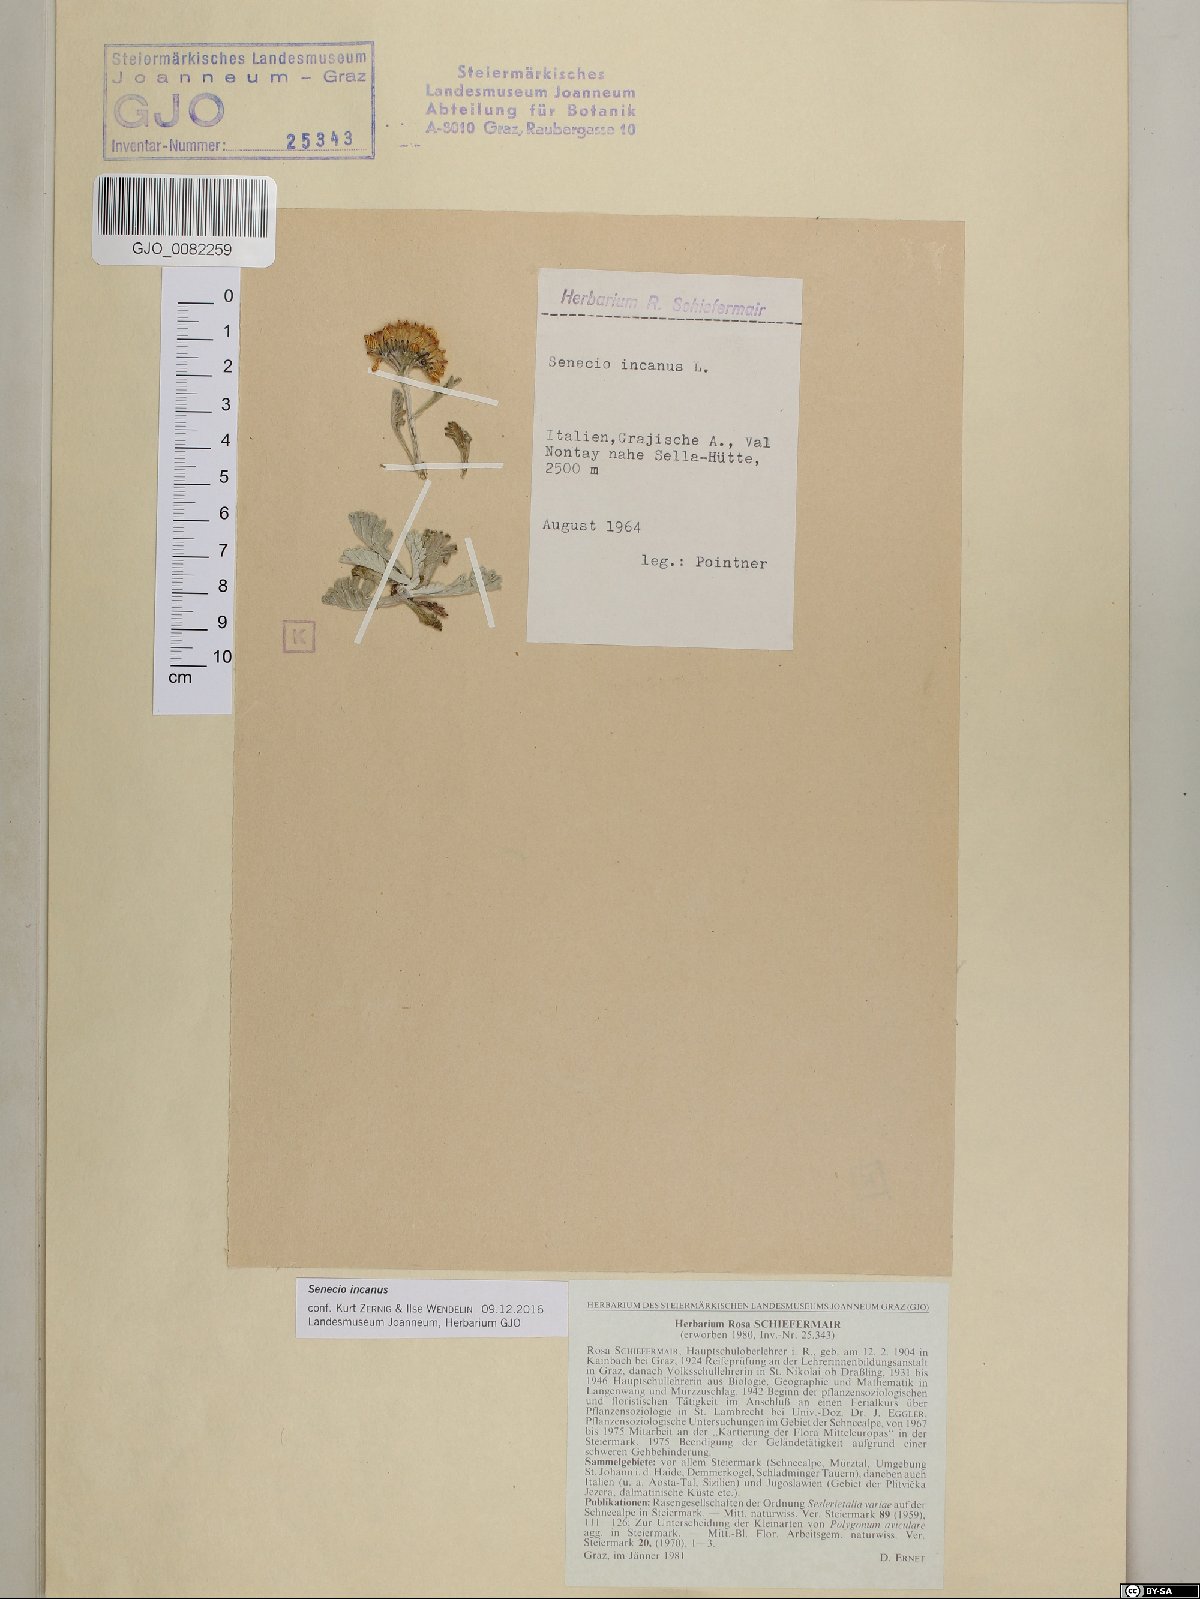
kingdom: Plantae
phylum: Tracheophyta
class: Magnoliopsida
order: Asterales
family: Asteraceae
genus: Jacobaea
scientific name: Jacobaea incana
